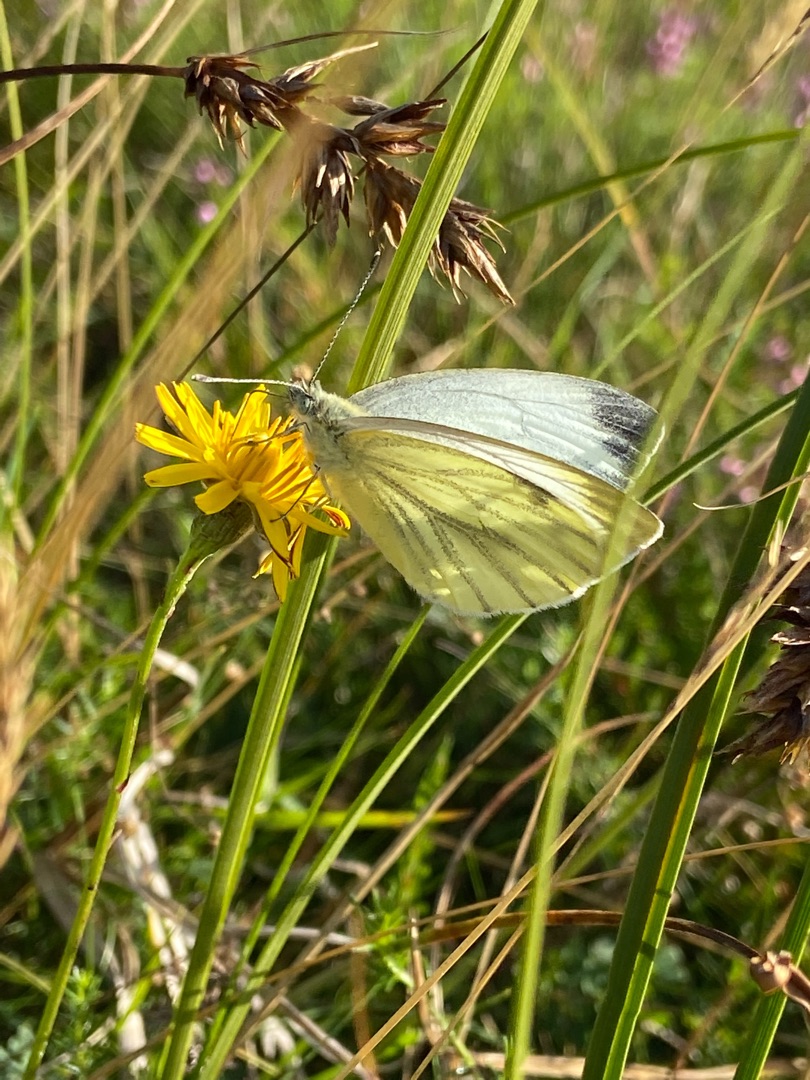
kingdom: Animalia
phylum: Arthropoda
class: Insecta
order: Lepidoptera
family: Pieridae
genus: Pieris
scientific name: Pieris napi
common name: Grønåret kålsommerfugl
